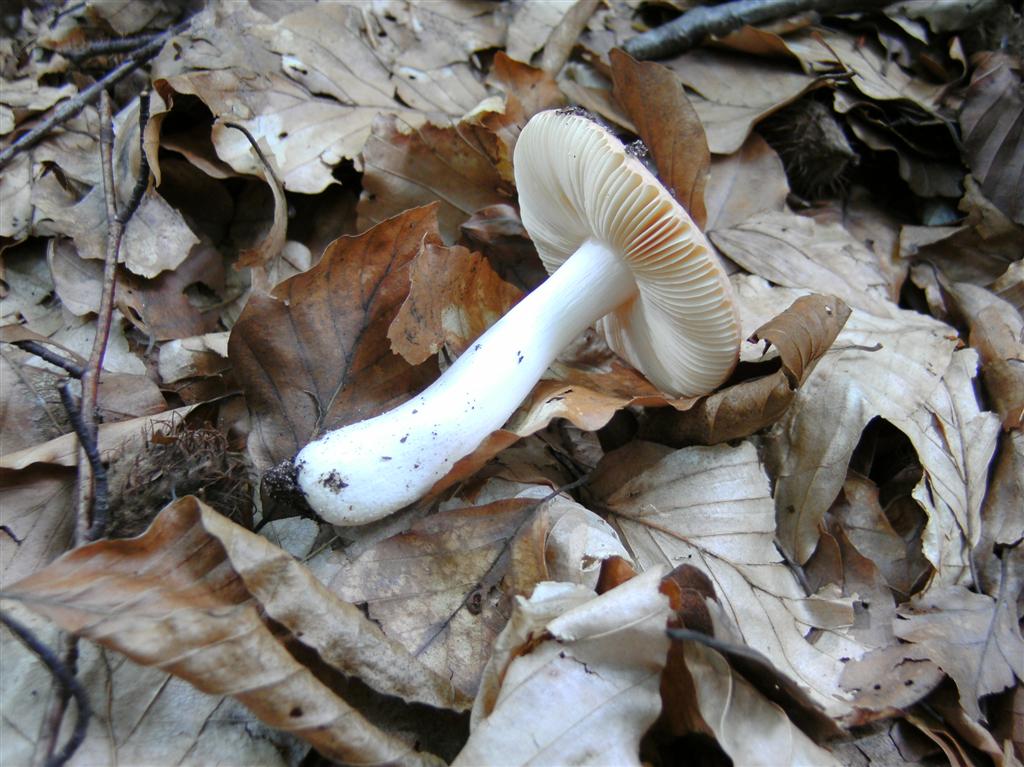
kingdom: Fungi
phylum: Basidiomycota
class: Agaricomycetes
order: Russulales
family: Russulaceae
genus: Russula
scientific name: Russula risigallina
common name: abrikos-skørhat
